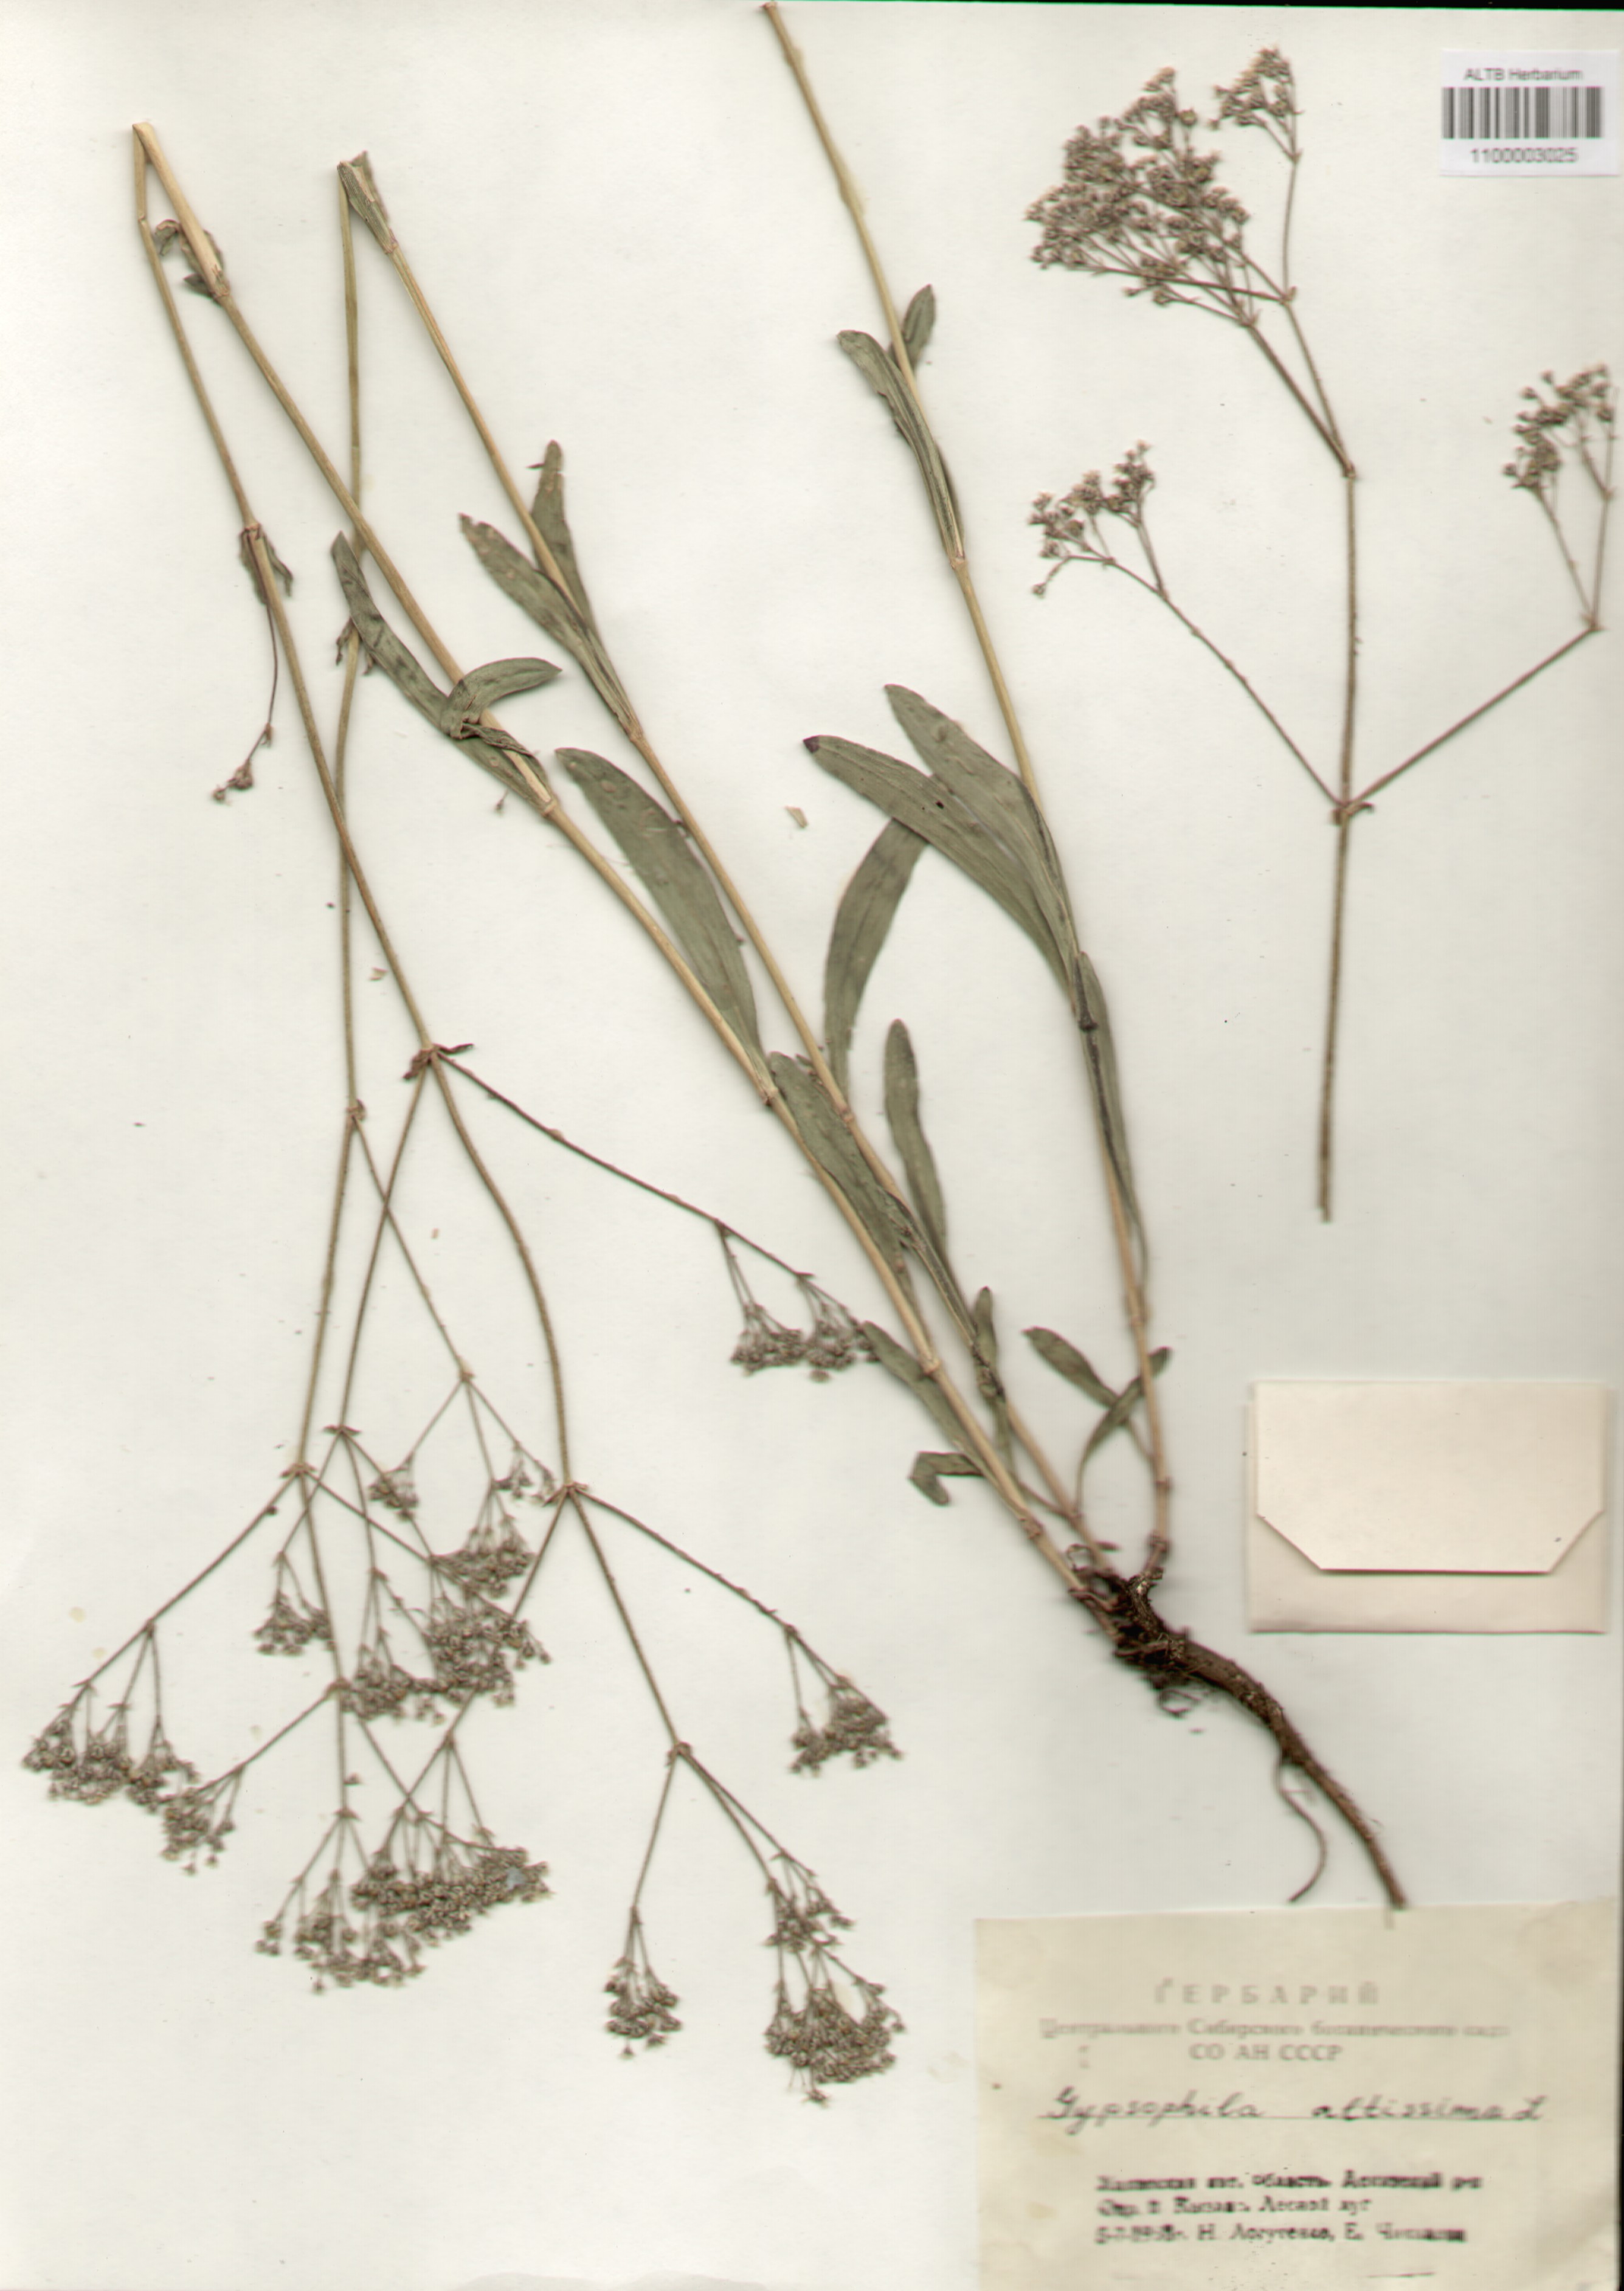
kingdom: Plantae
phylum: Tracheophyta
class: Magnoliopsida
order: Caryophyllales
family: Caryophyllaceae
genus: Gypsophila
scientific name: Gypsophila altissima
